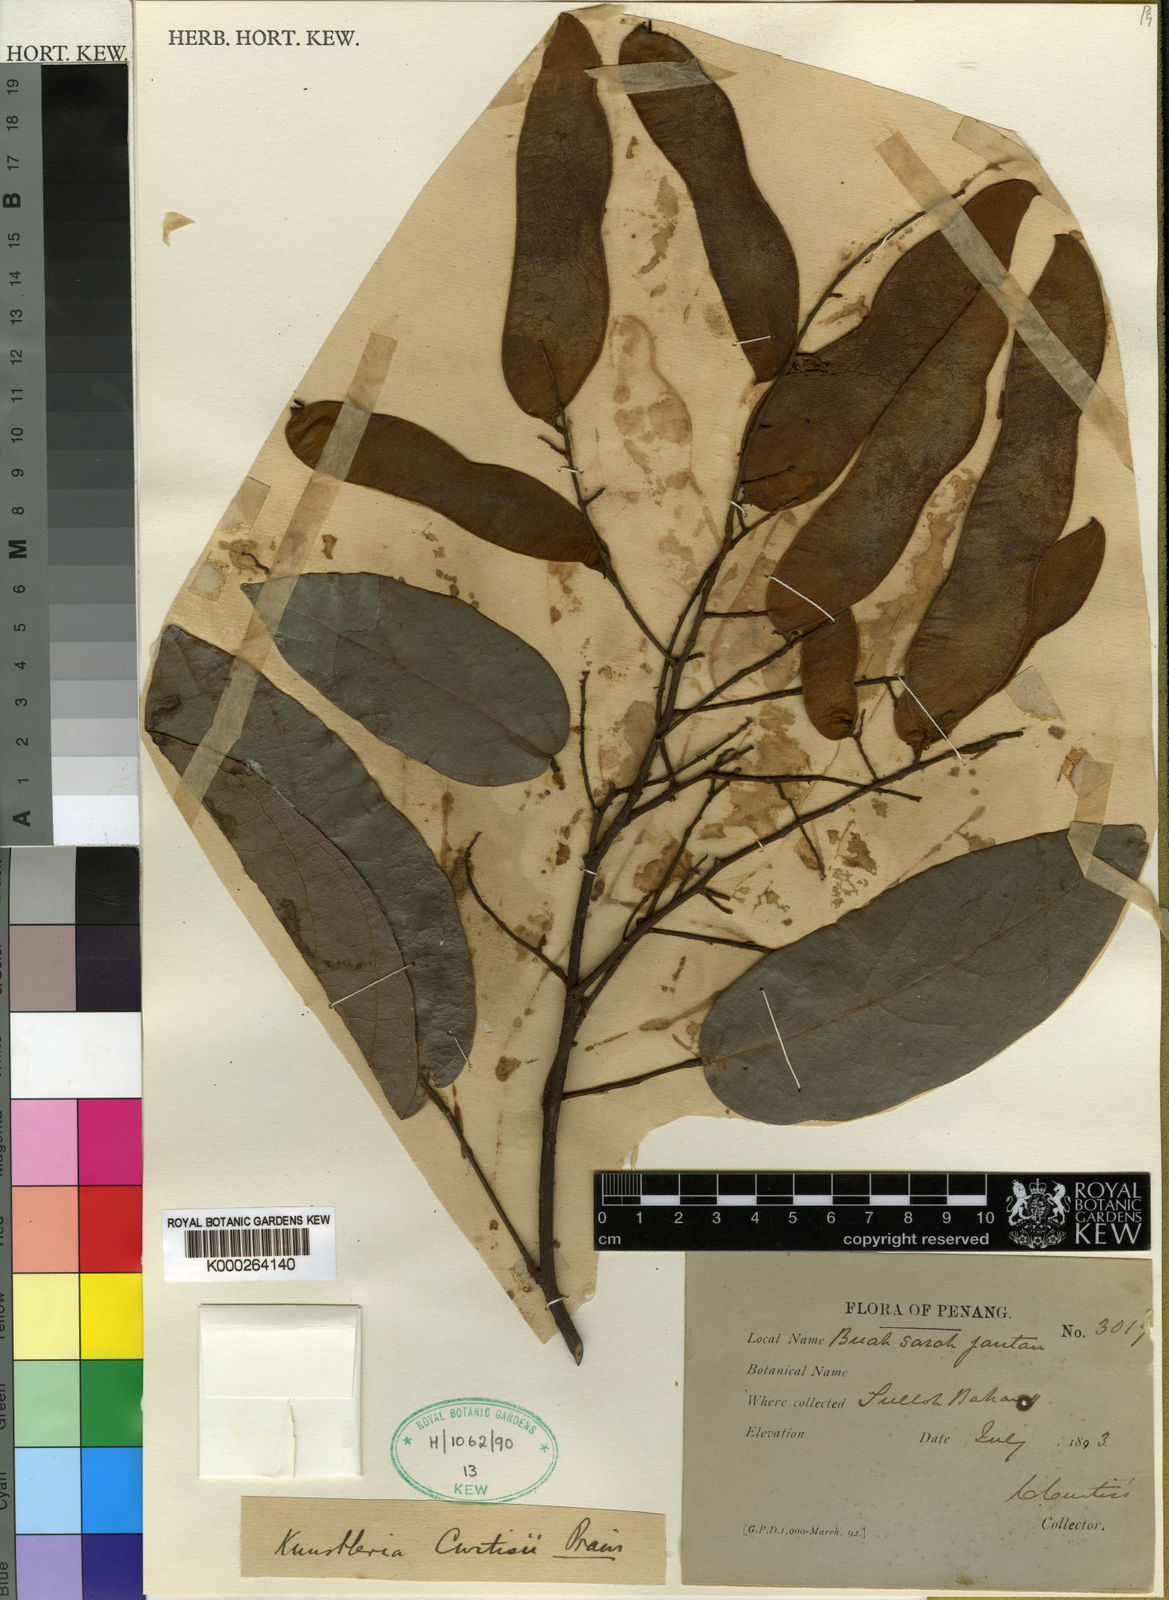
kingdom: Plantae
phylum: Tracheophyta
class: Magnoliopsida
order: Fabales
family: Fabaceae
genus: Kunstleria
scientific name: Kunstleria curtisii
